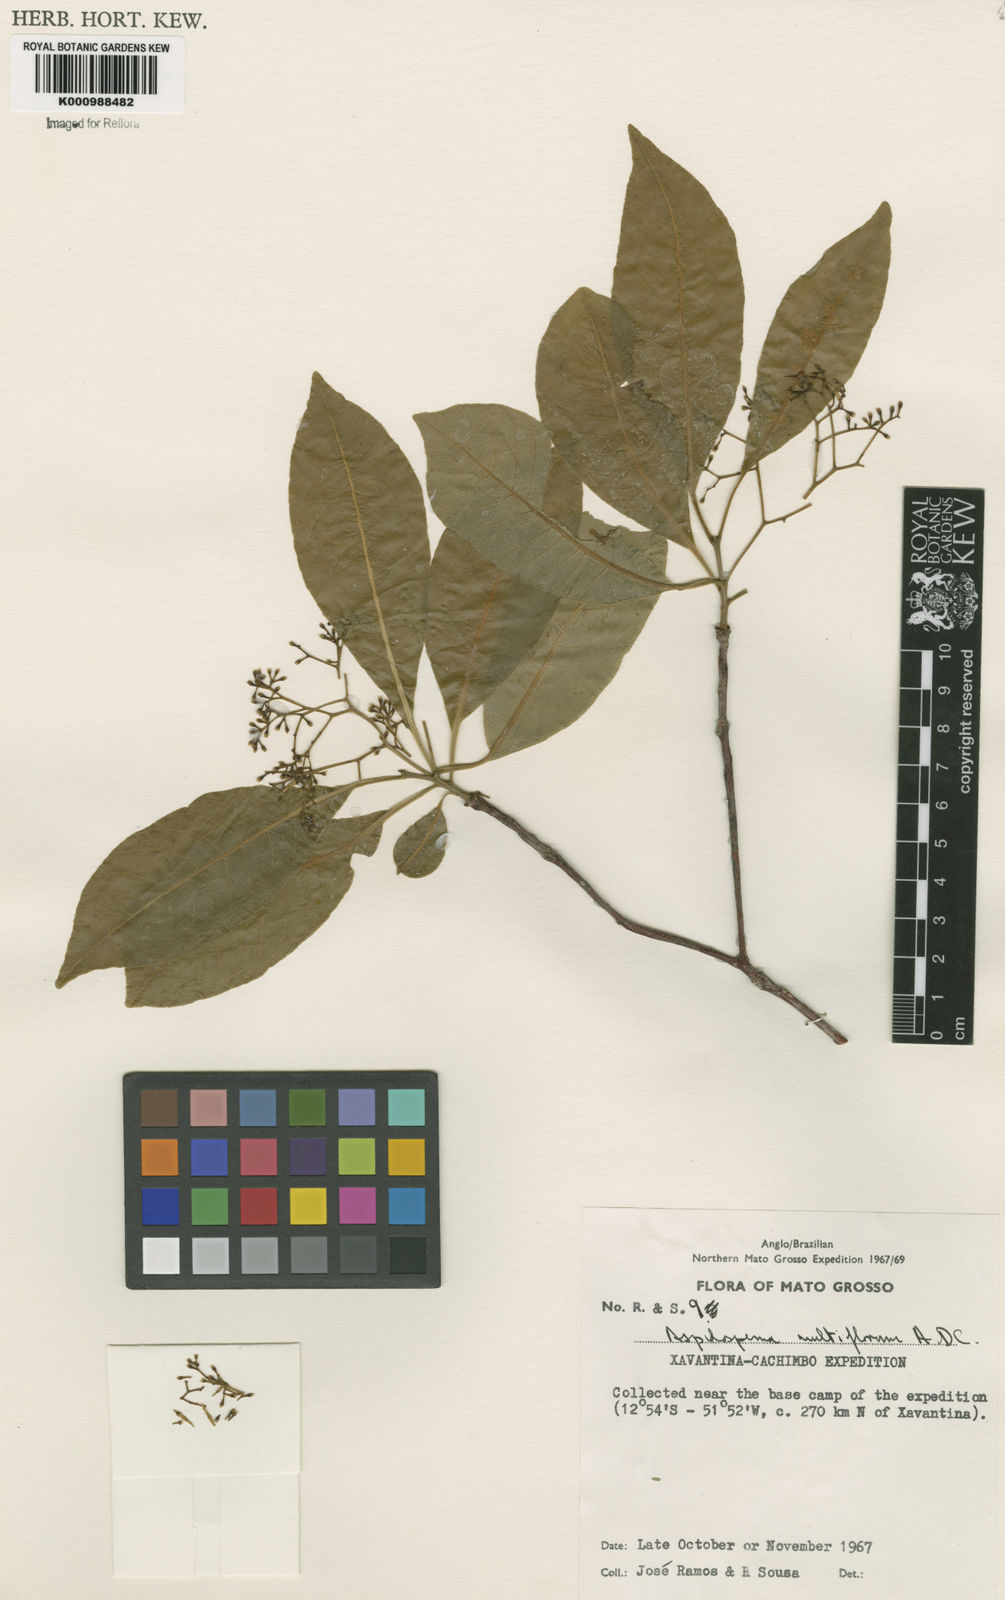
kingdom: Plantae
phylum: Tracheophyta
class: Magnoliopsida
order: Gentianales
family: Apocynaceae
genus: Aspidosperma
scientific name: Aspidosperma multiflorum
